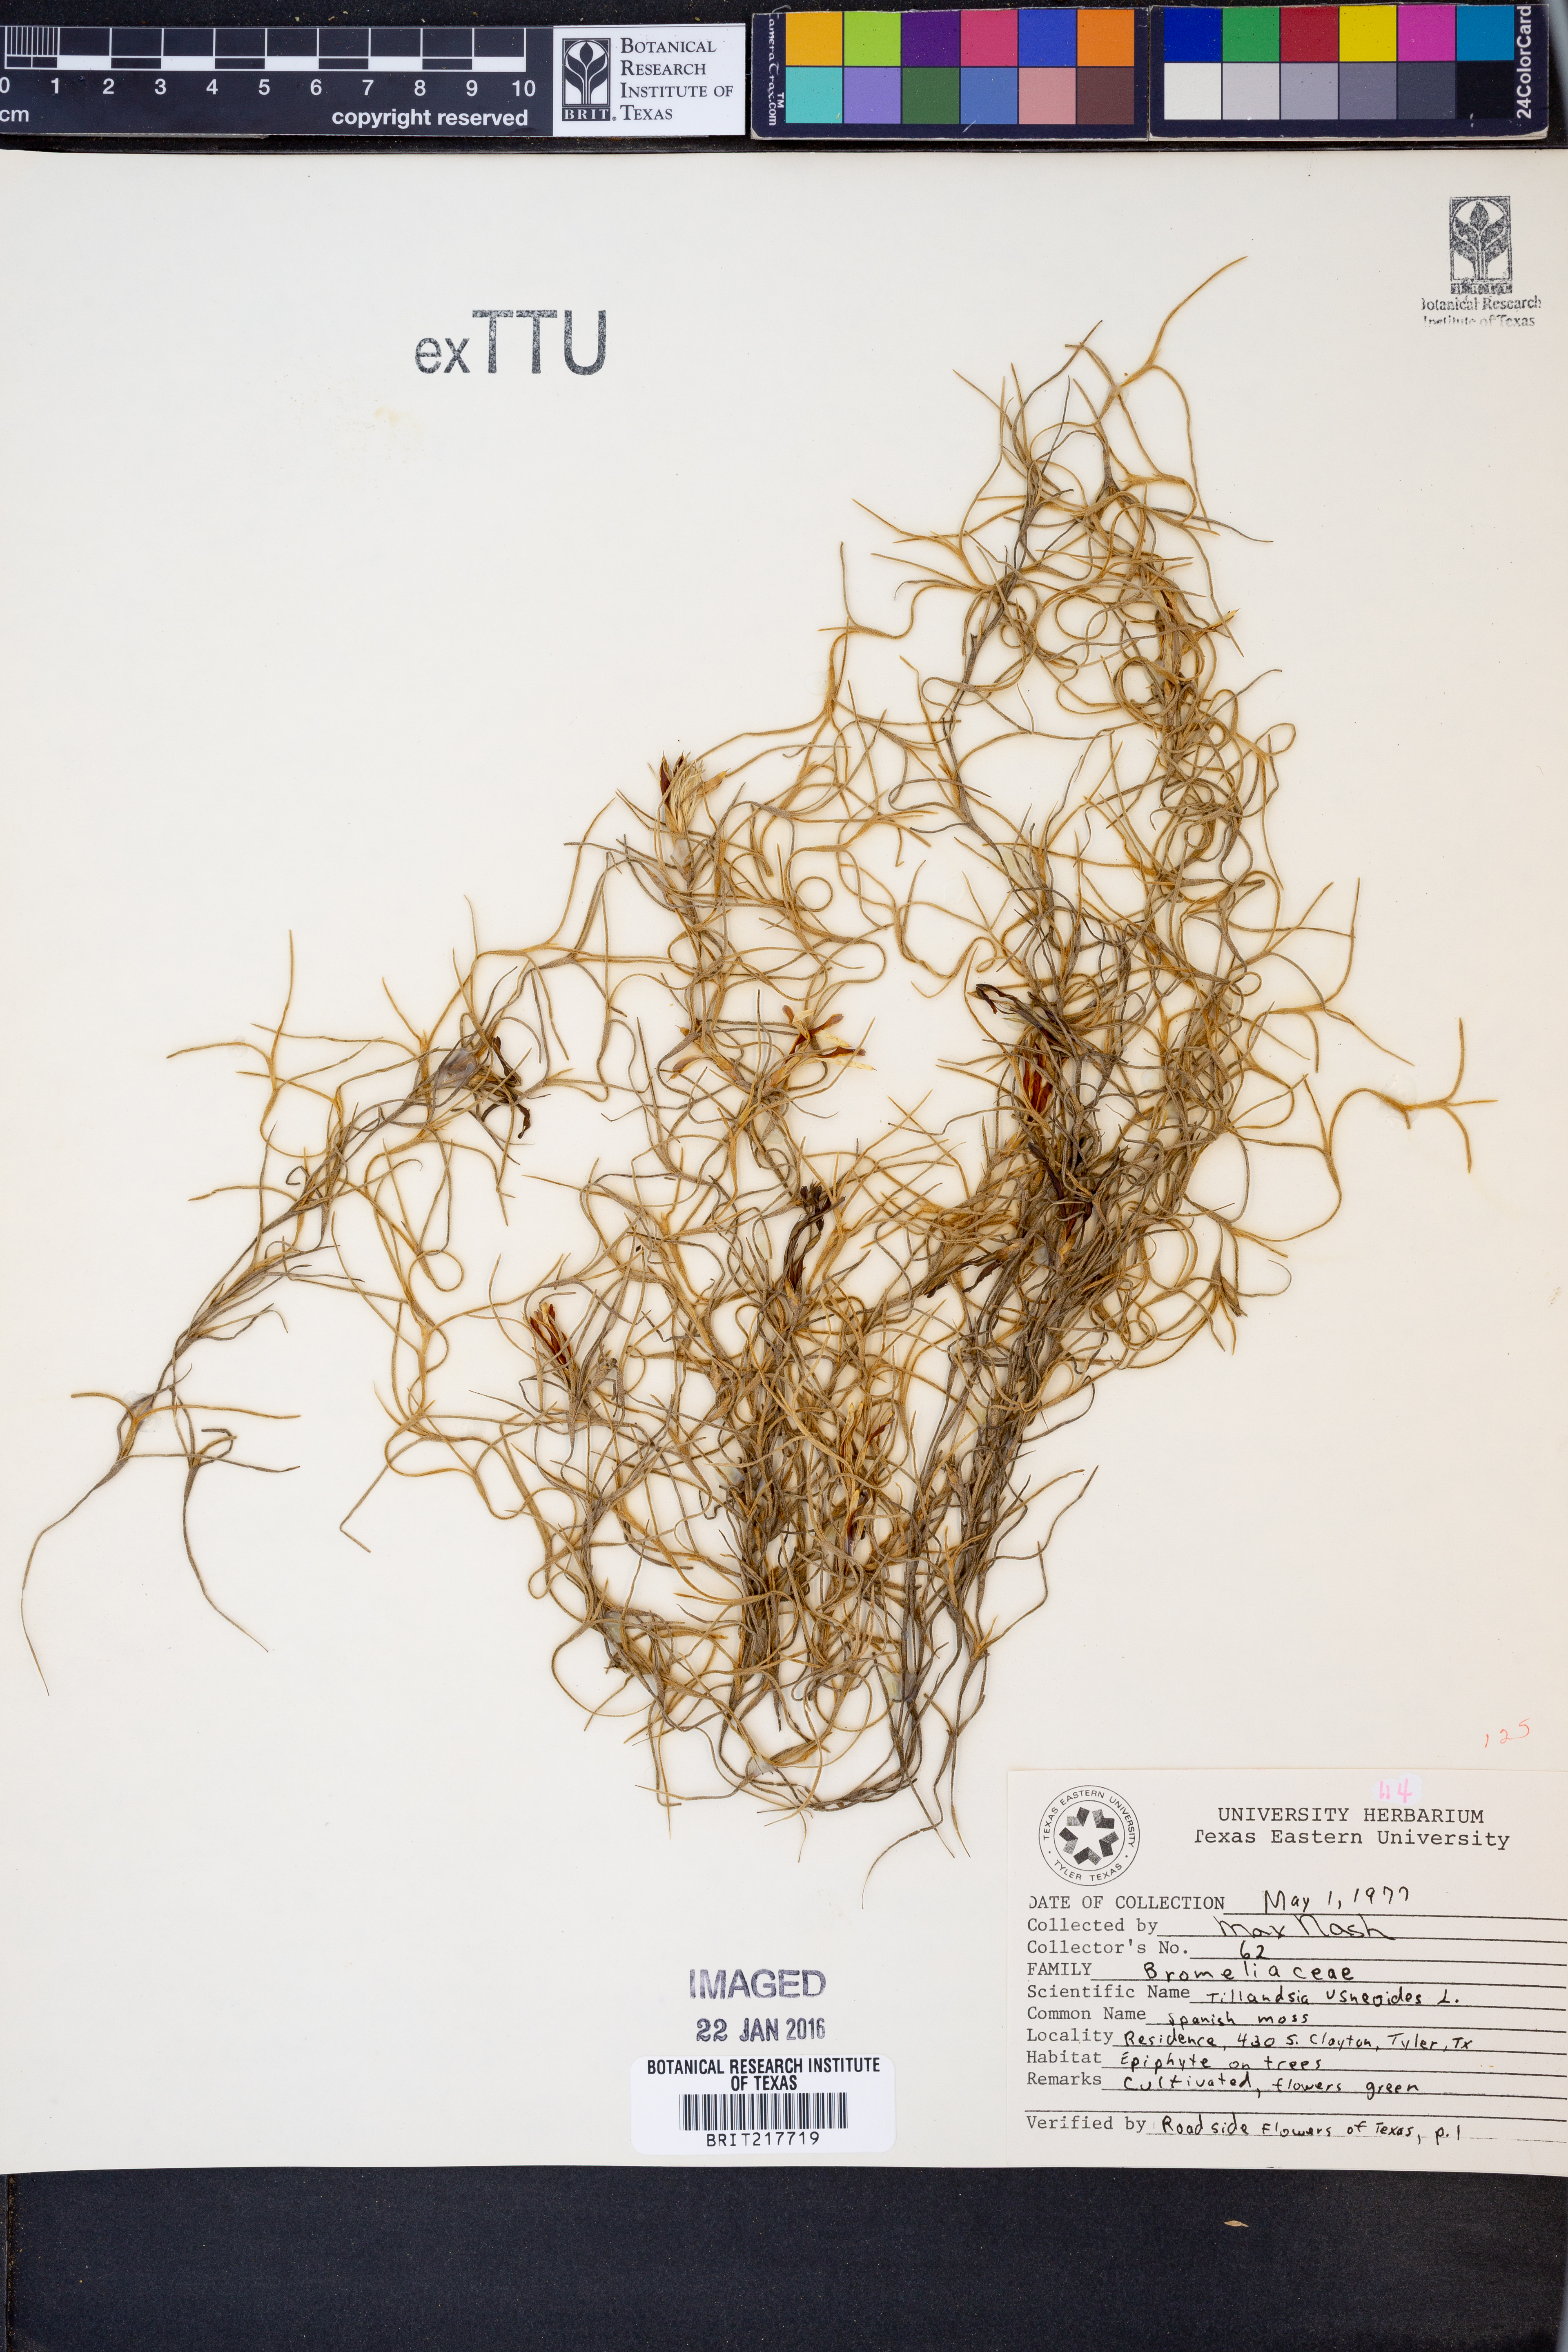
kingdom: Plantae
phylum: Tracheophyta
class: Liliopsida
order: Poales
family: Bromeliaceae
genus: Tillandsia
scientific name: Tillandsia usneoides
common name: Spanish moss
